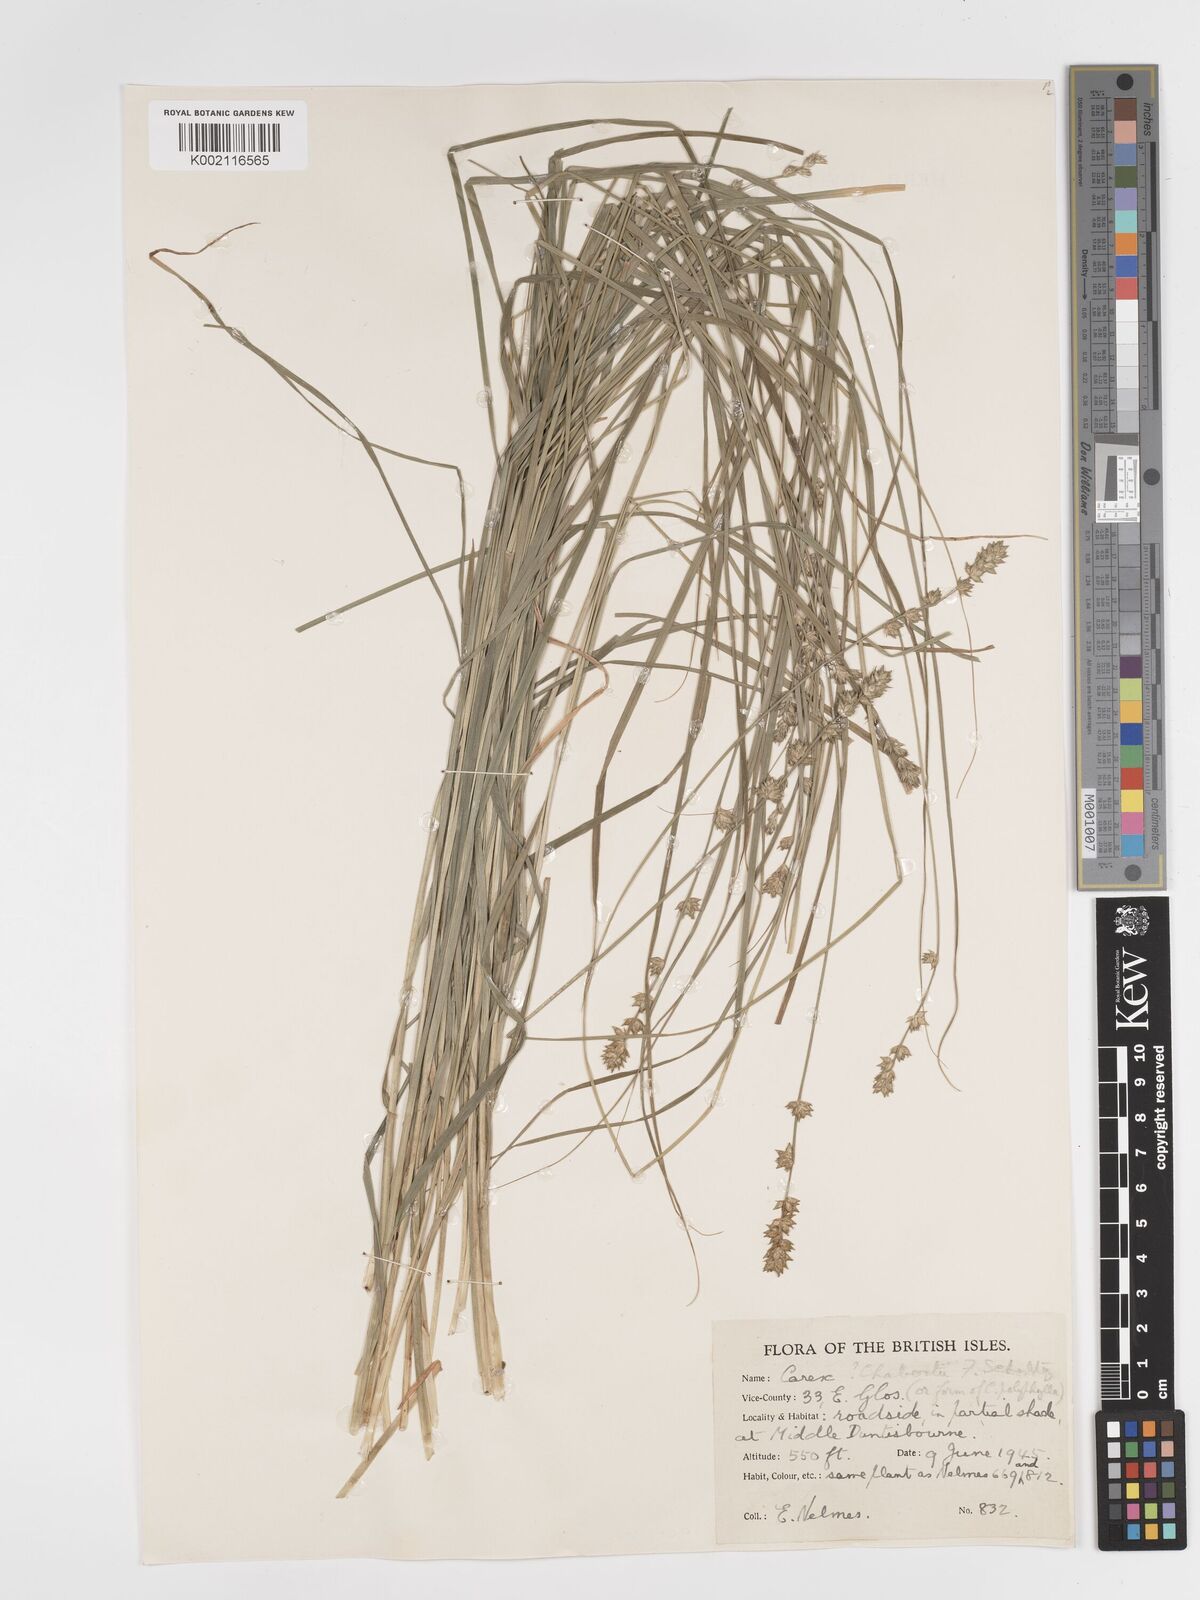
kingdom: Plantae
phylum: Tracheophyta
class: Liliopsida
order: Poales
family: Cyperaceae
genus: Carex
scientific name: Carex divulsa
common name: Grassland sedge
